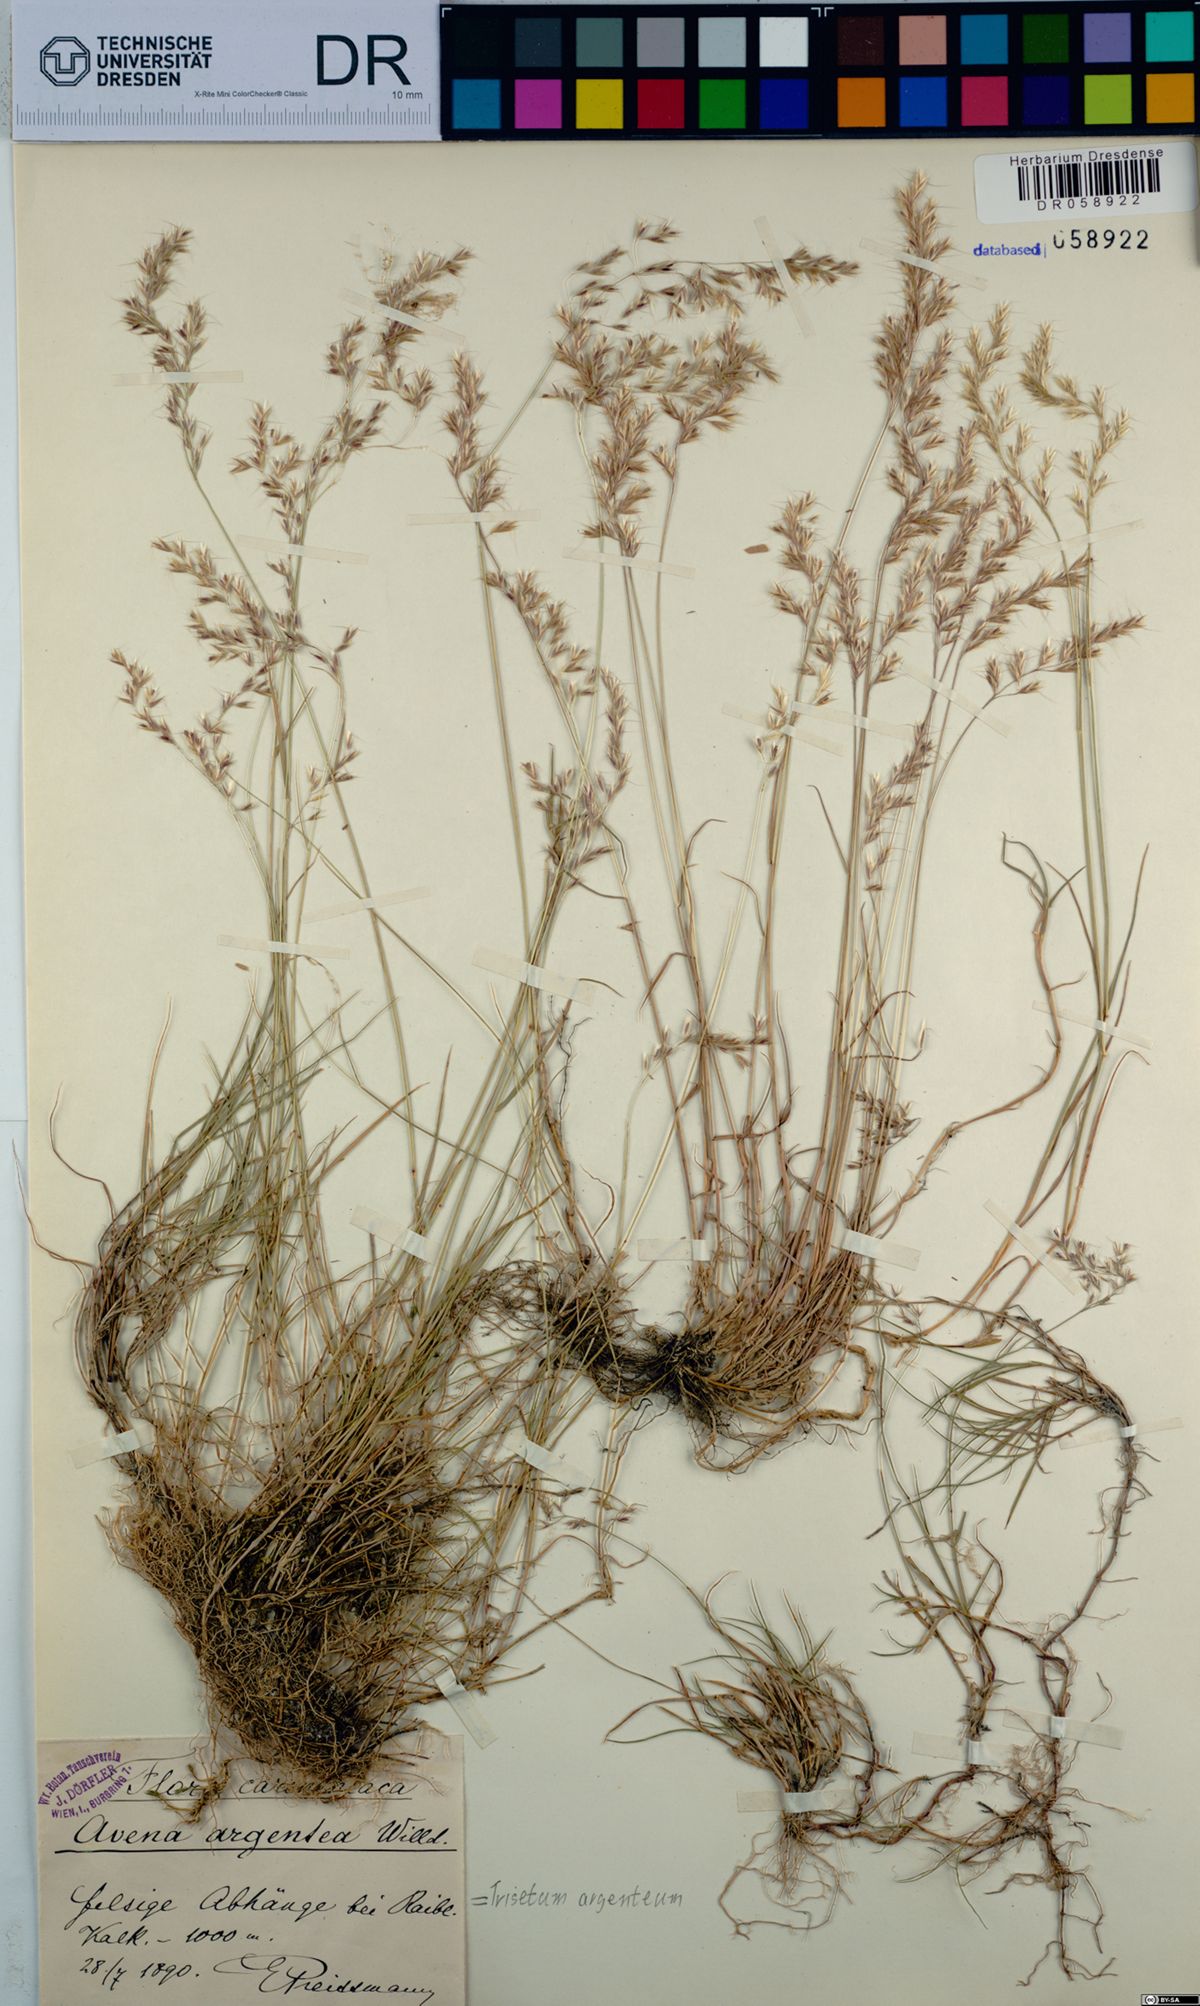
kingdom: Plantae
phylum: Tracheophyta
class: Liliopsida
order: Poales
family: Poaceae
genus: Trisetum
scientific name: Trisetum argenteum
